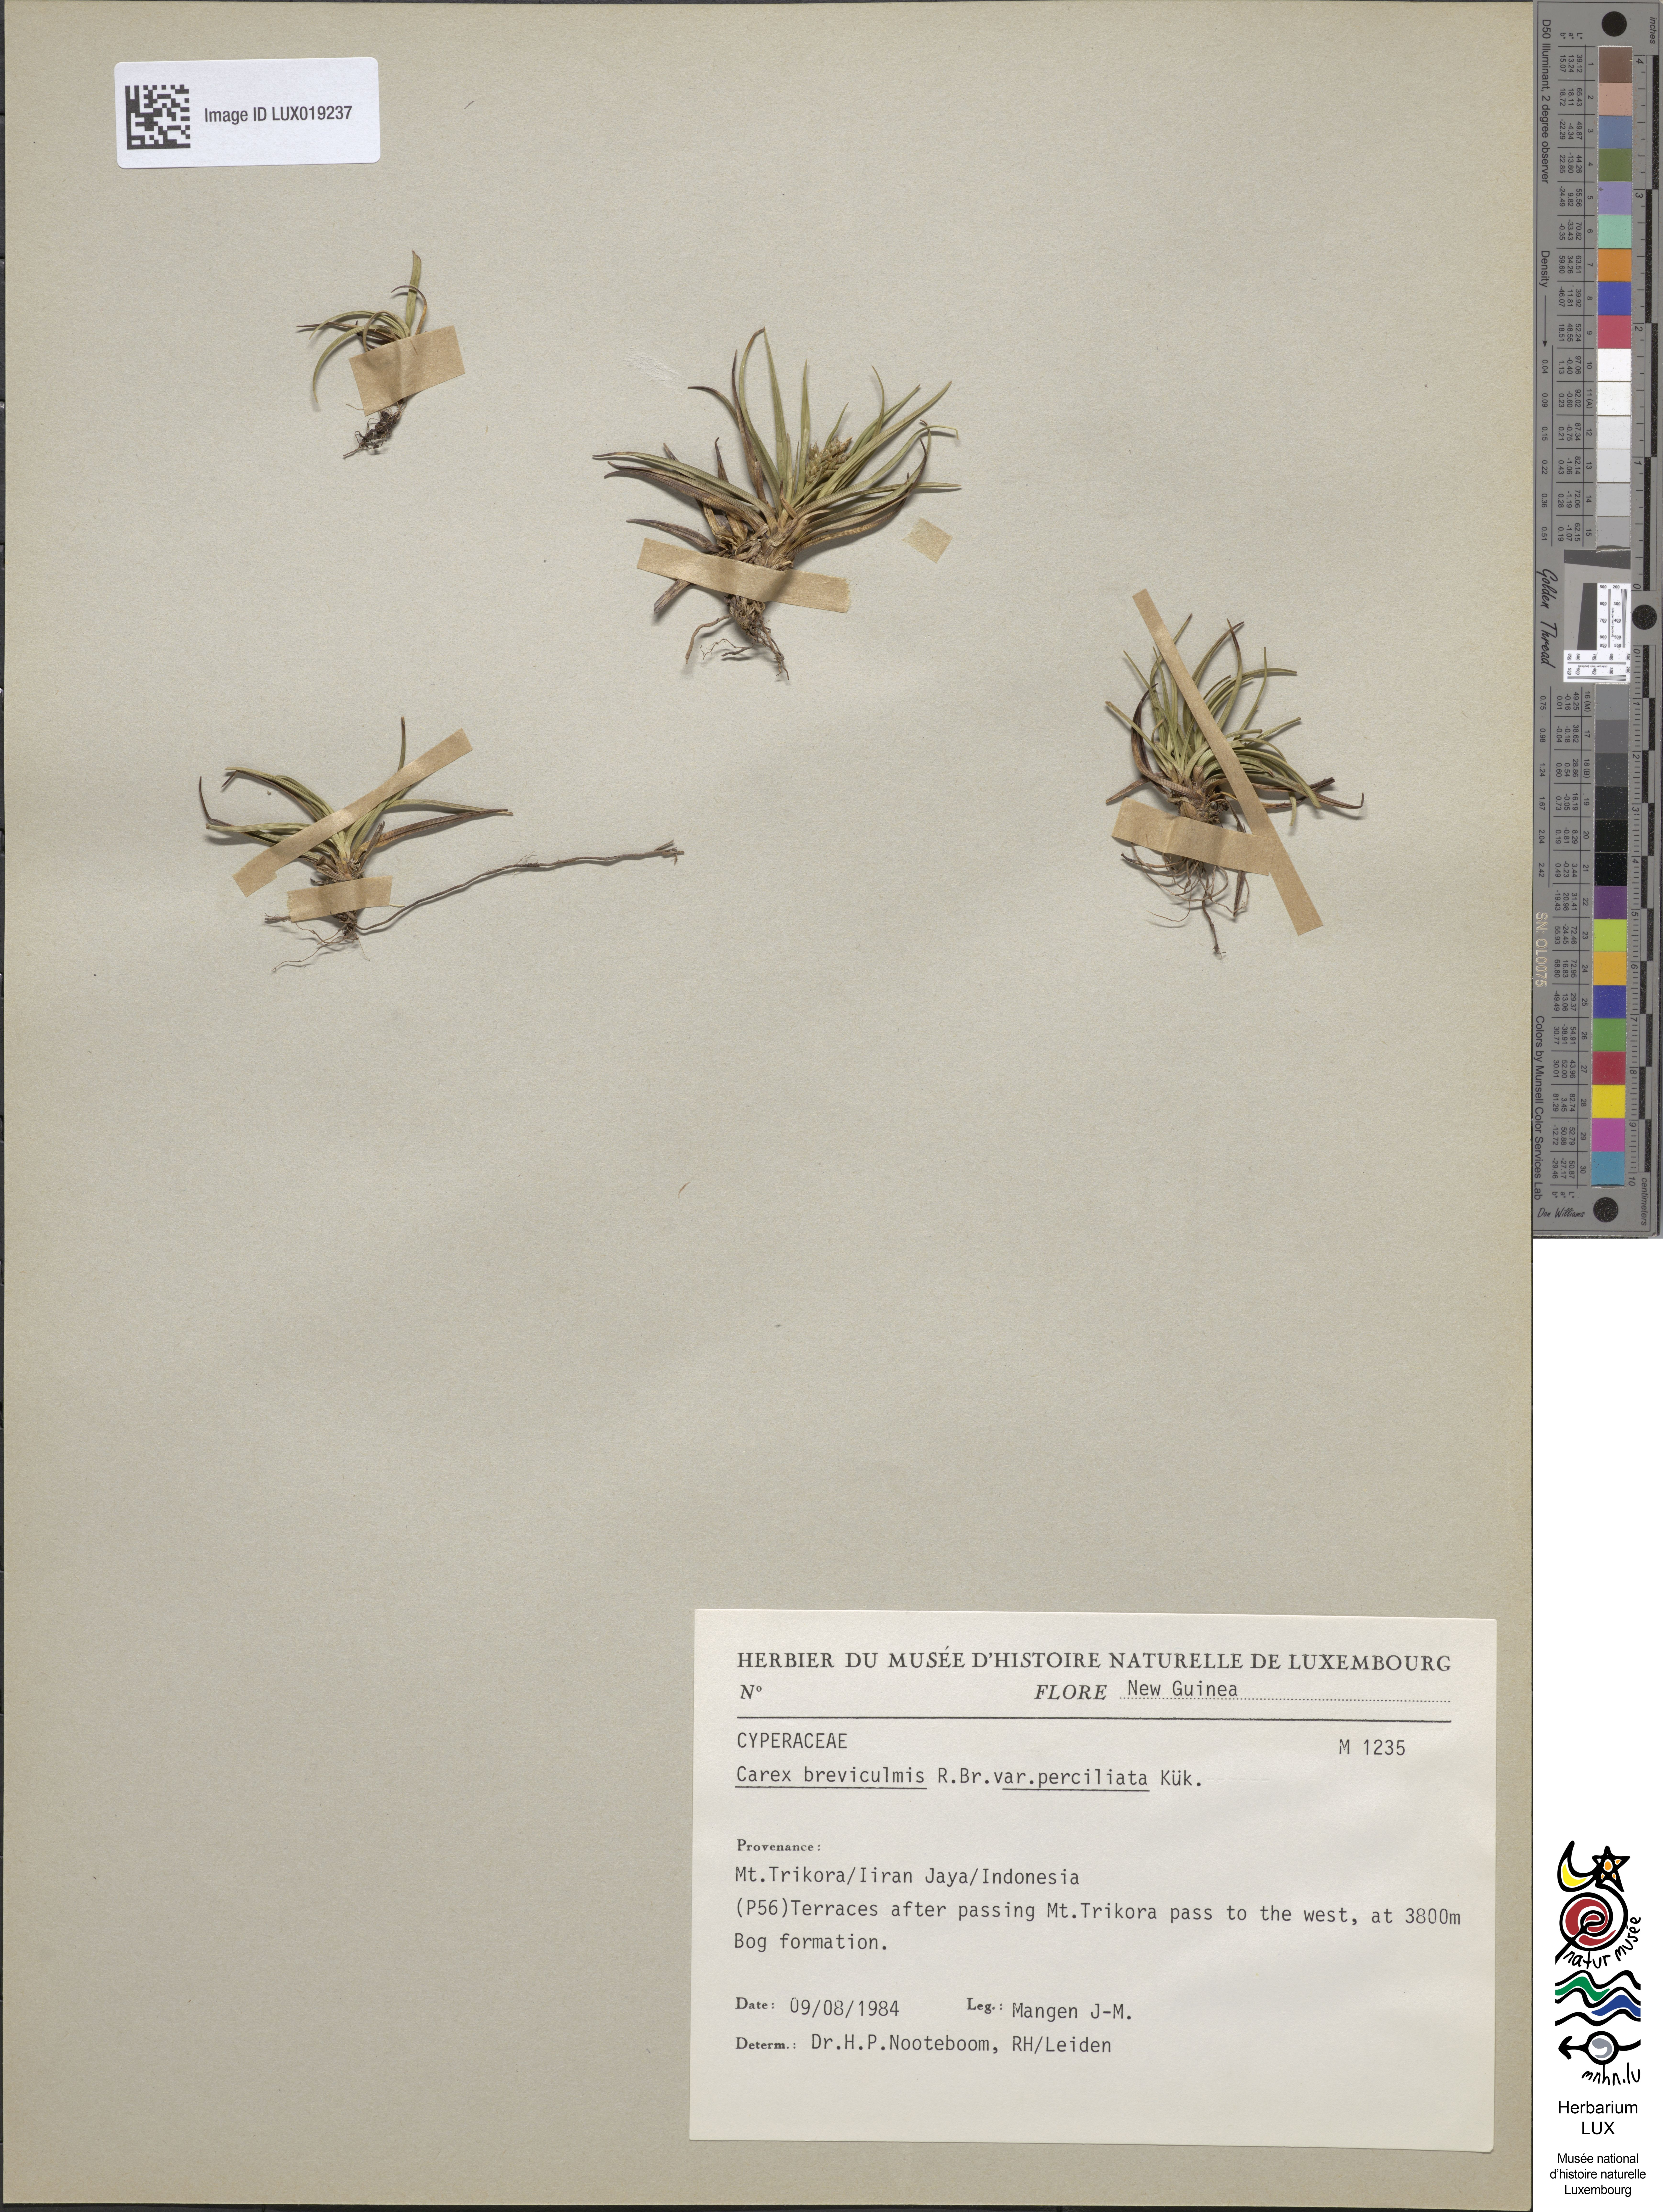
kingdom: Plantae
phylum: Tracheophyta
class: Liliopsida
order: Poales
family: Cyperaceae
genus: Carex
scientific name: Carex breviculmis
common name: Asian shortstem sedge
